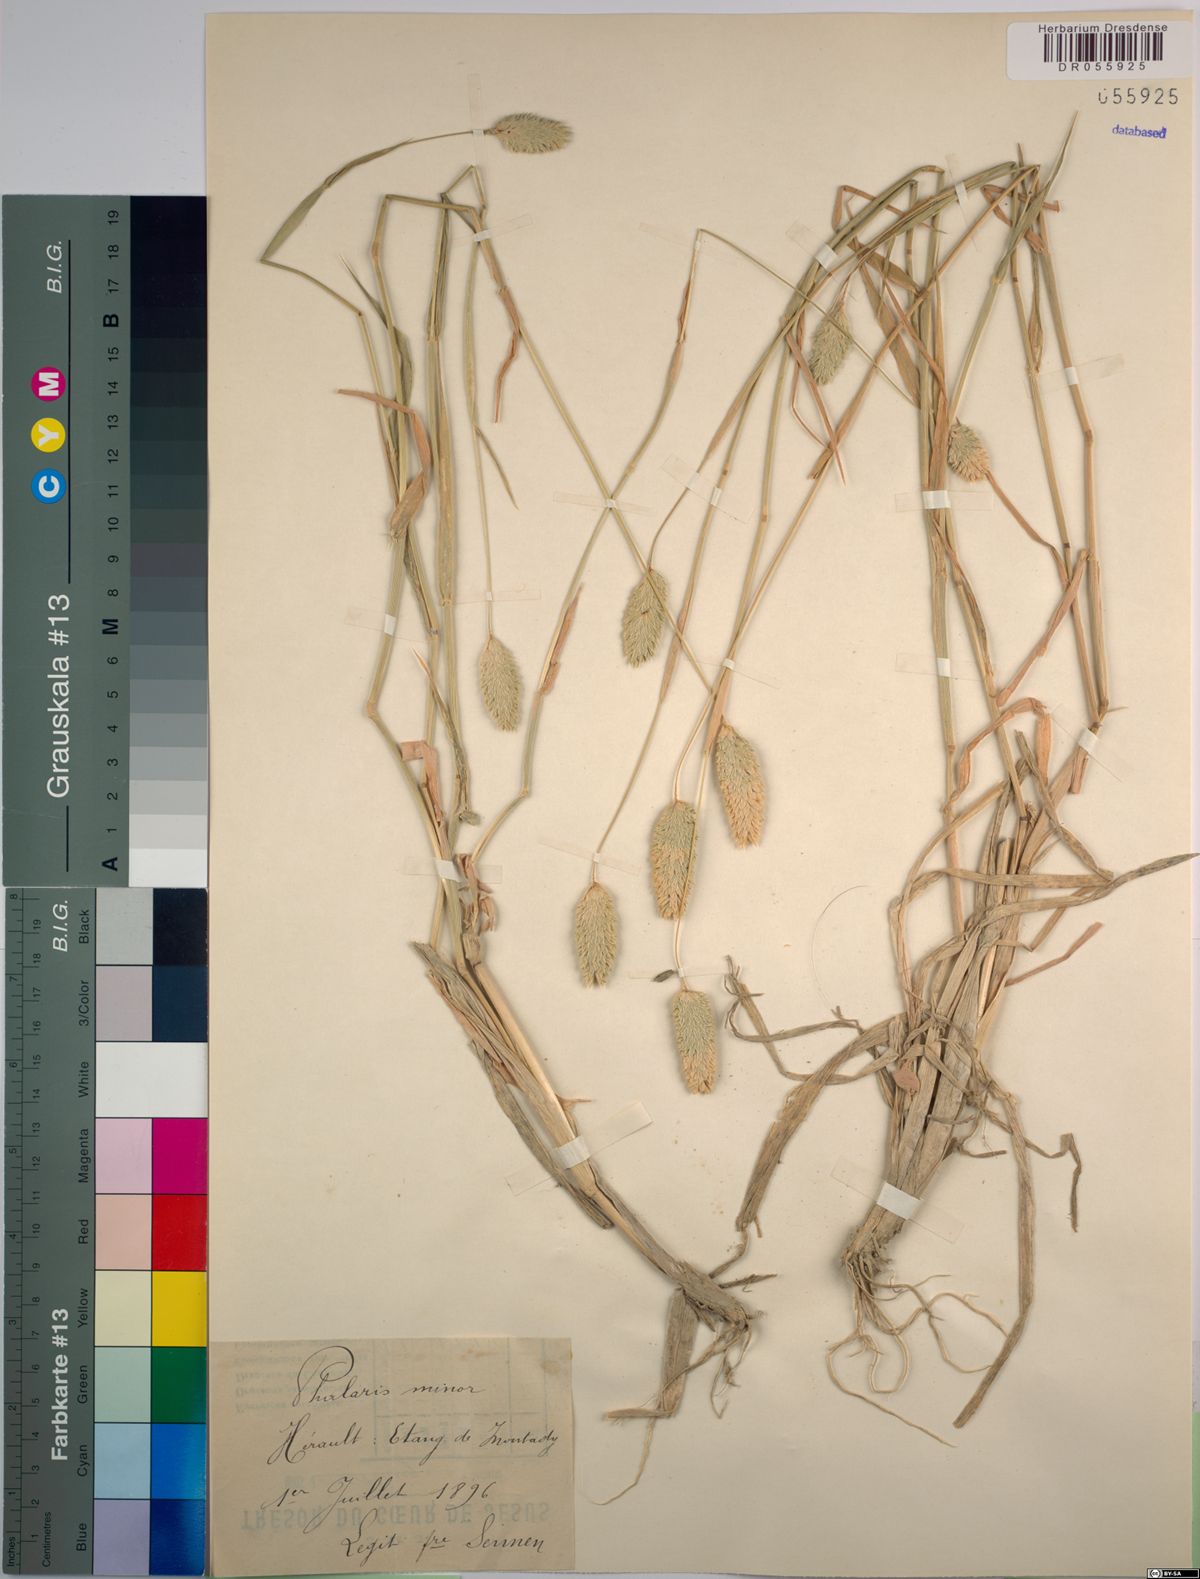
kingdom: Plantae
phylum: Tracheophyta
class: Liliopsida
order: Poales
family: Poaceae
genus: Phalaris
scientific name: Phalaris minor
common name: Littleseed canarygrass
